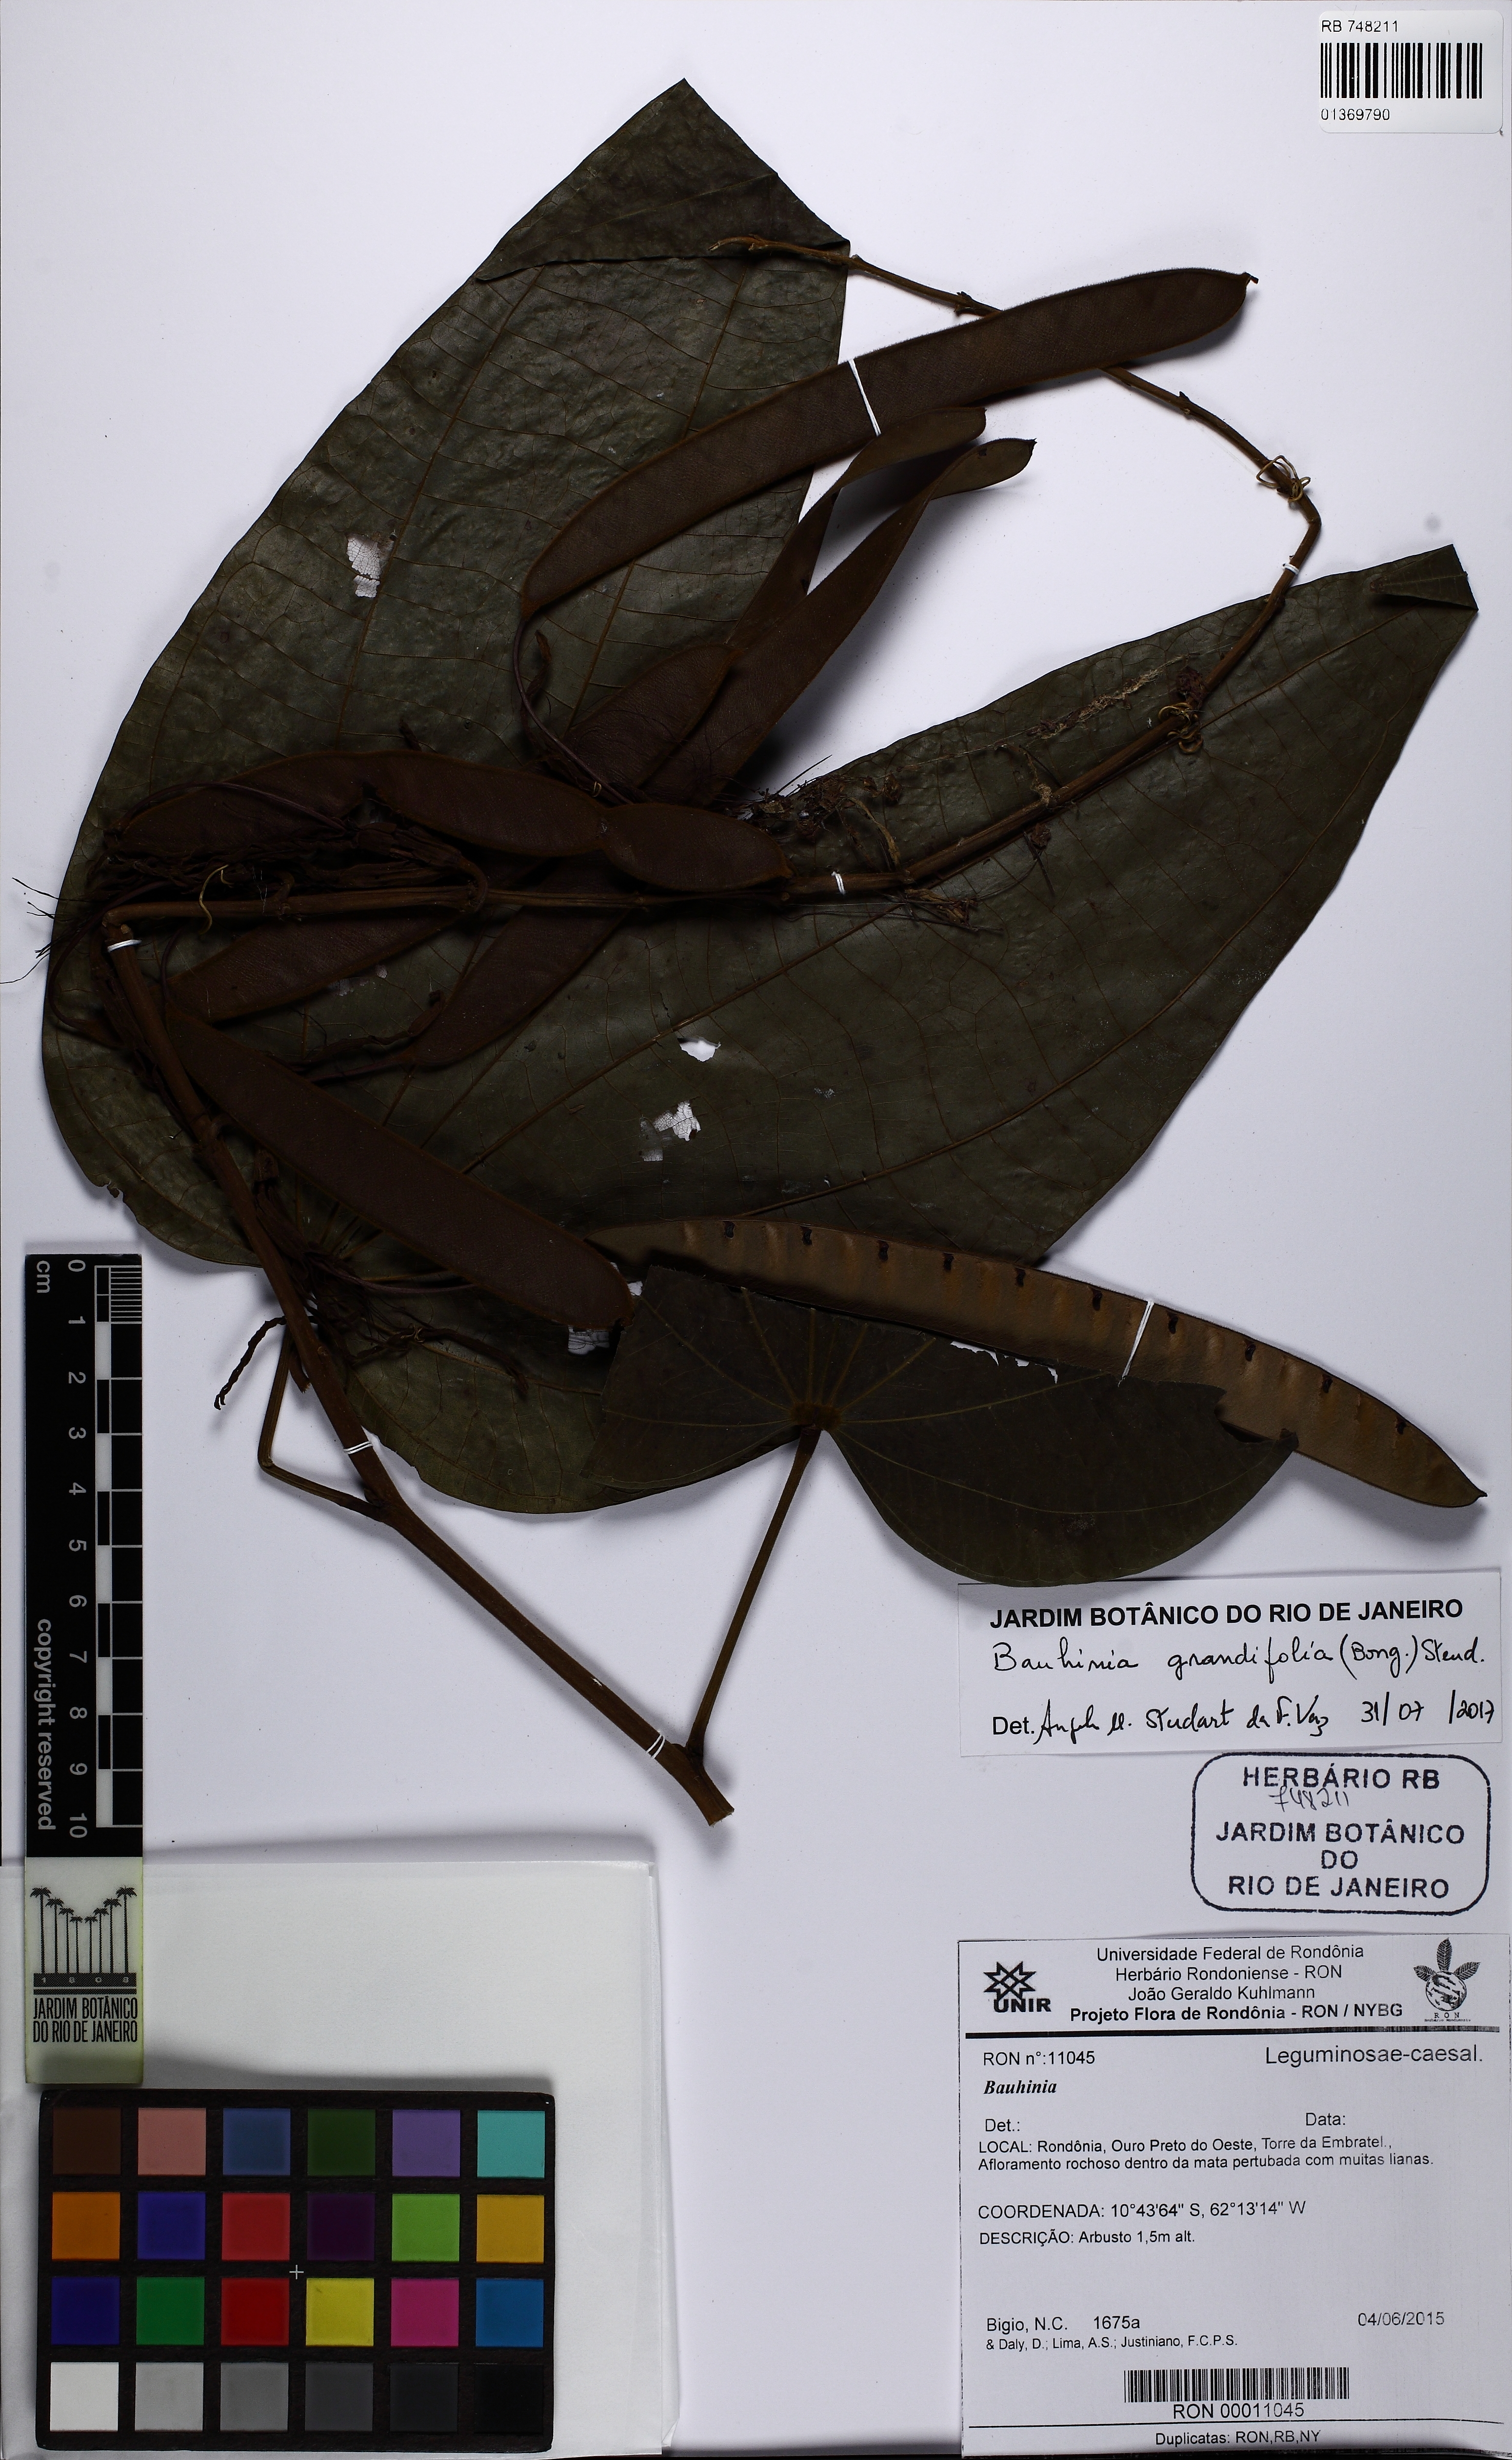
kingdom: Plantae
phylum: Tracheophyta
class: Magnoliopsida
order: Fabales
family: Fabaceae
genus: Bauhinia
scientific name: Bauhinia grandifolia
